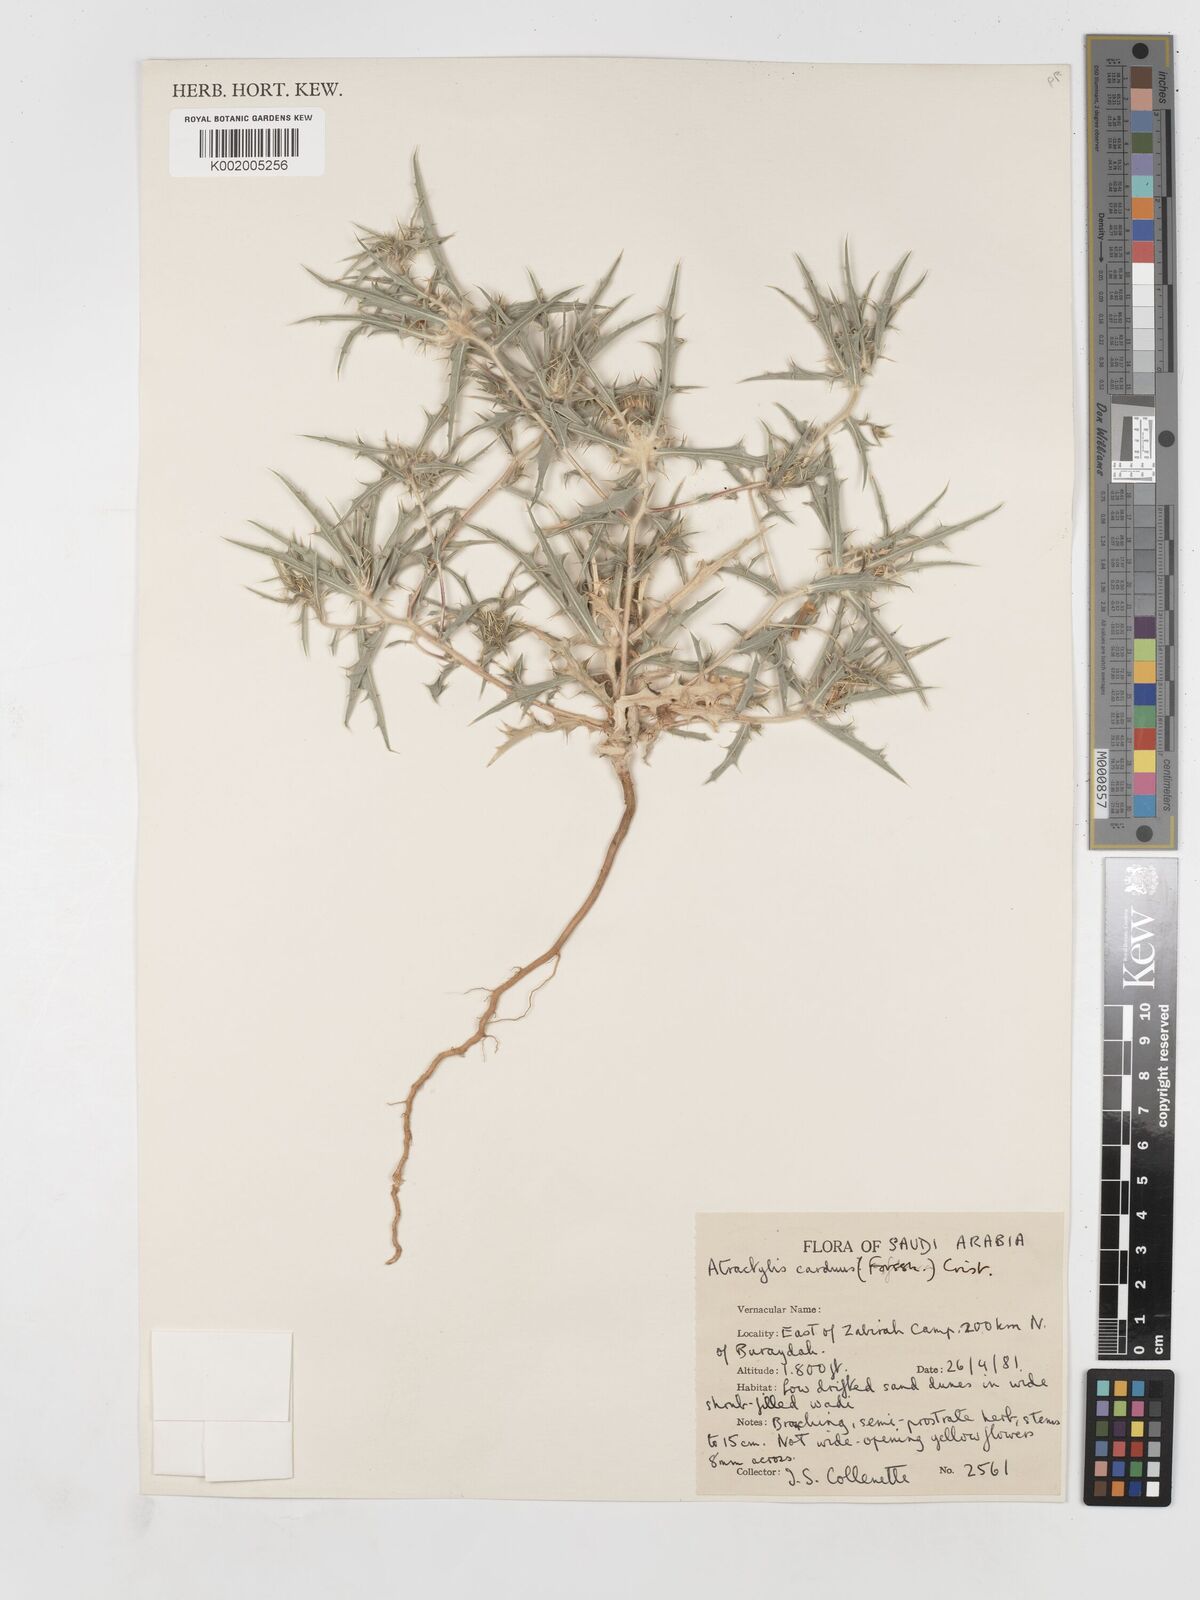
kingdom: Plantae
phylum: Tracheophyta
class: Magnoliopsida
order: Asterales
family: Asteraceae
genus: Atractylis
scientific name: Atractylis carduus
